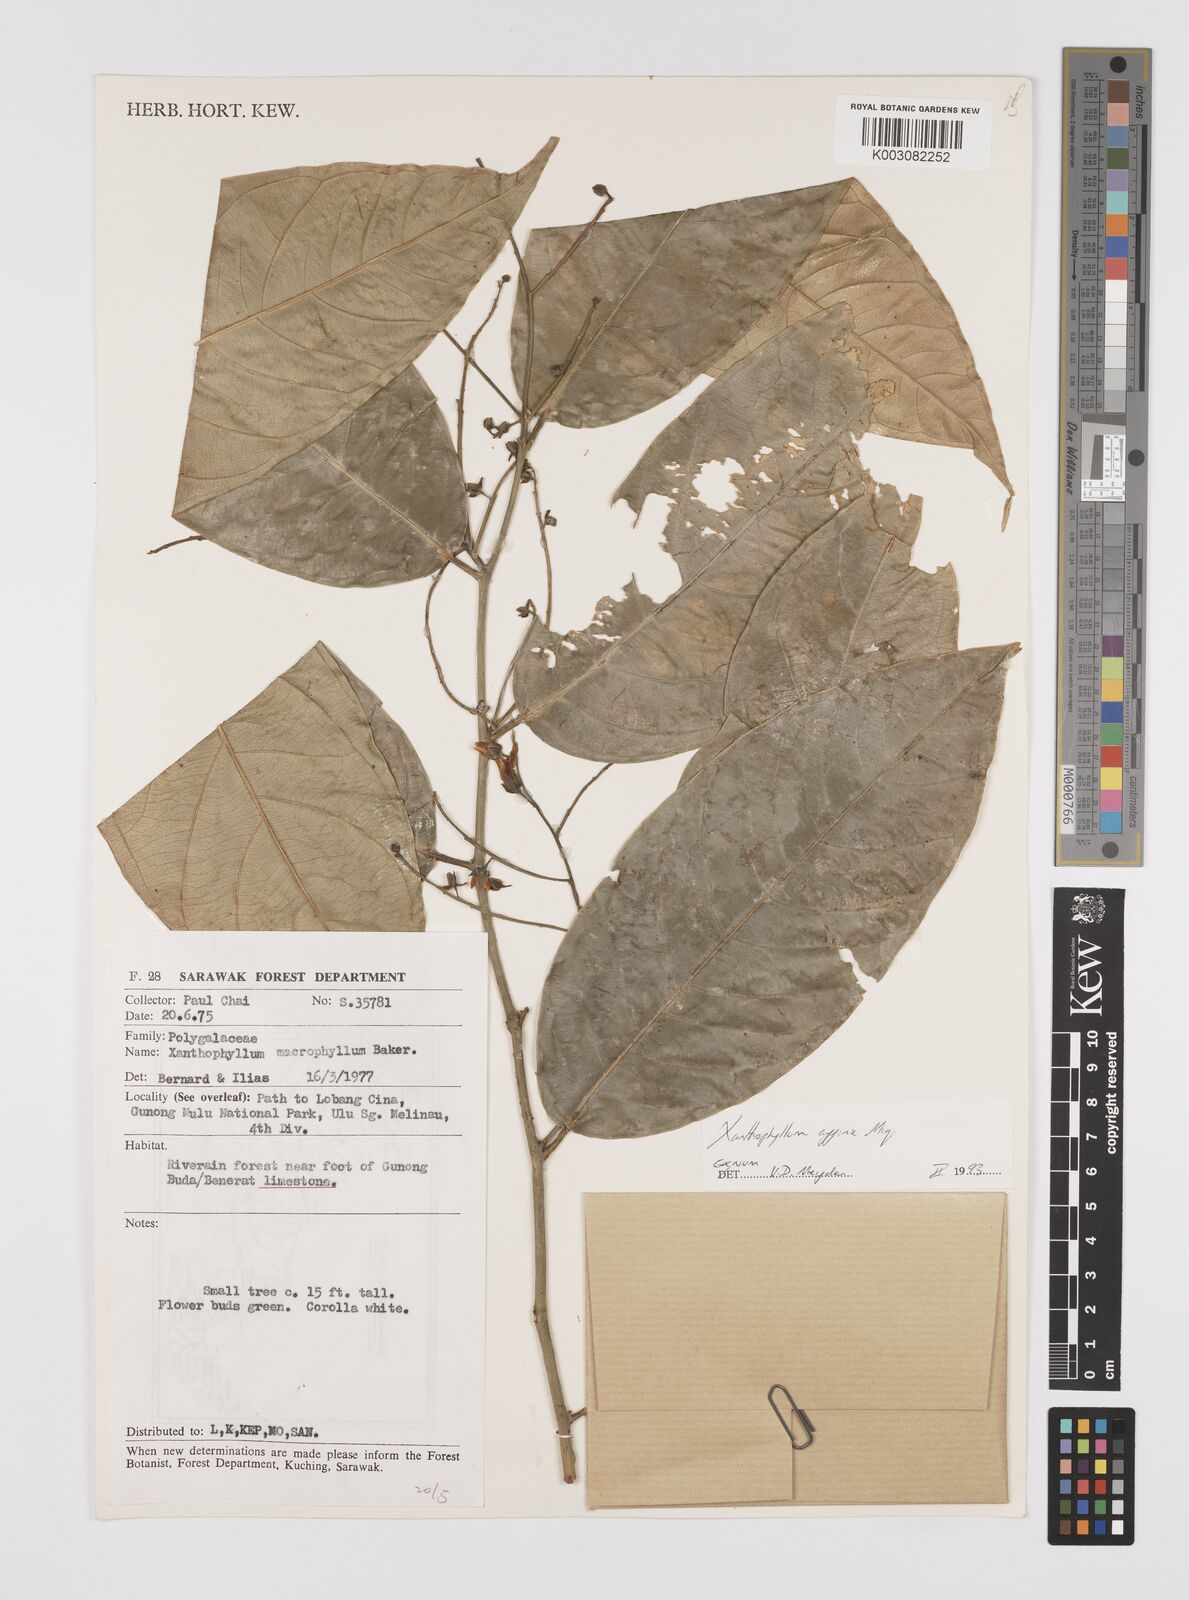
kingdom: Plantae
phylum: Tracheophyta
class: Magnoliopsida
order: Fabales
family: Polygalaceae
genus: Xanthophyllum
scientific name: Xanthophyllum flavescens
